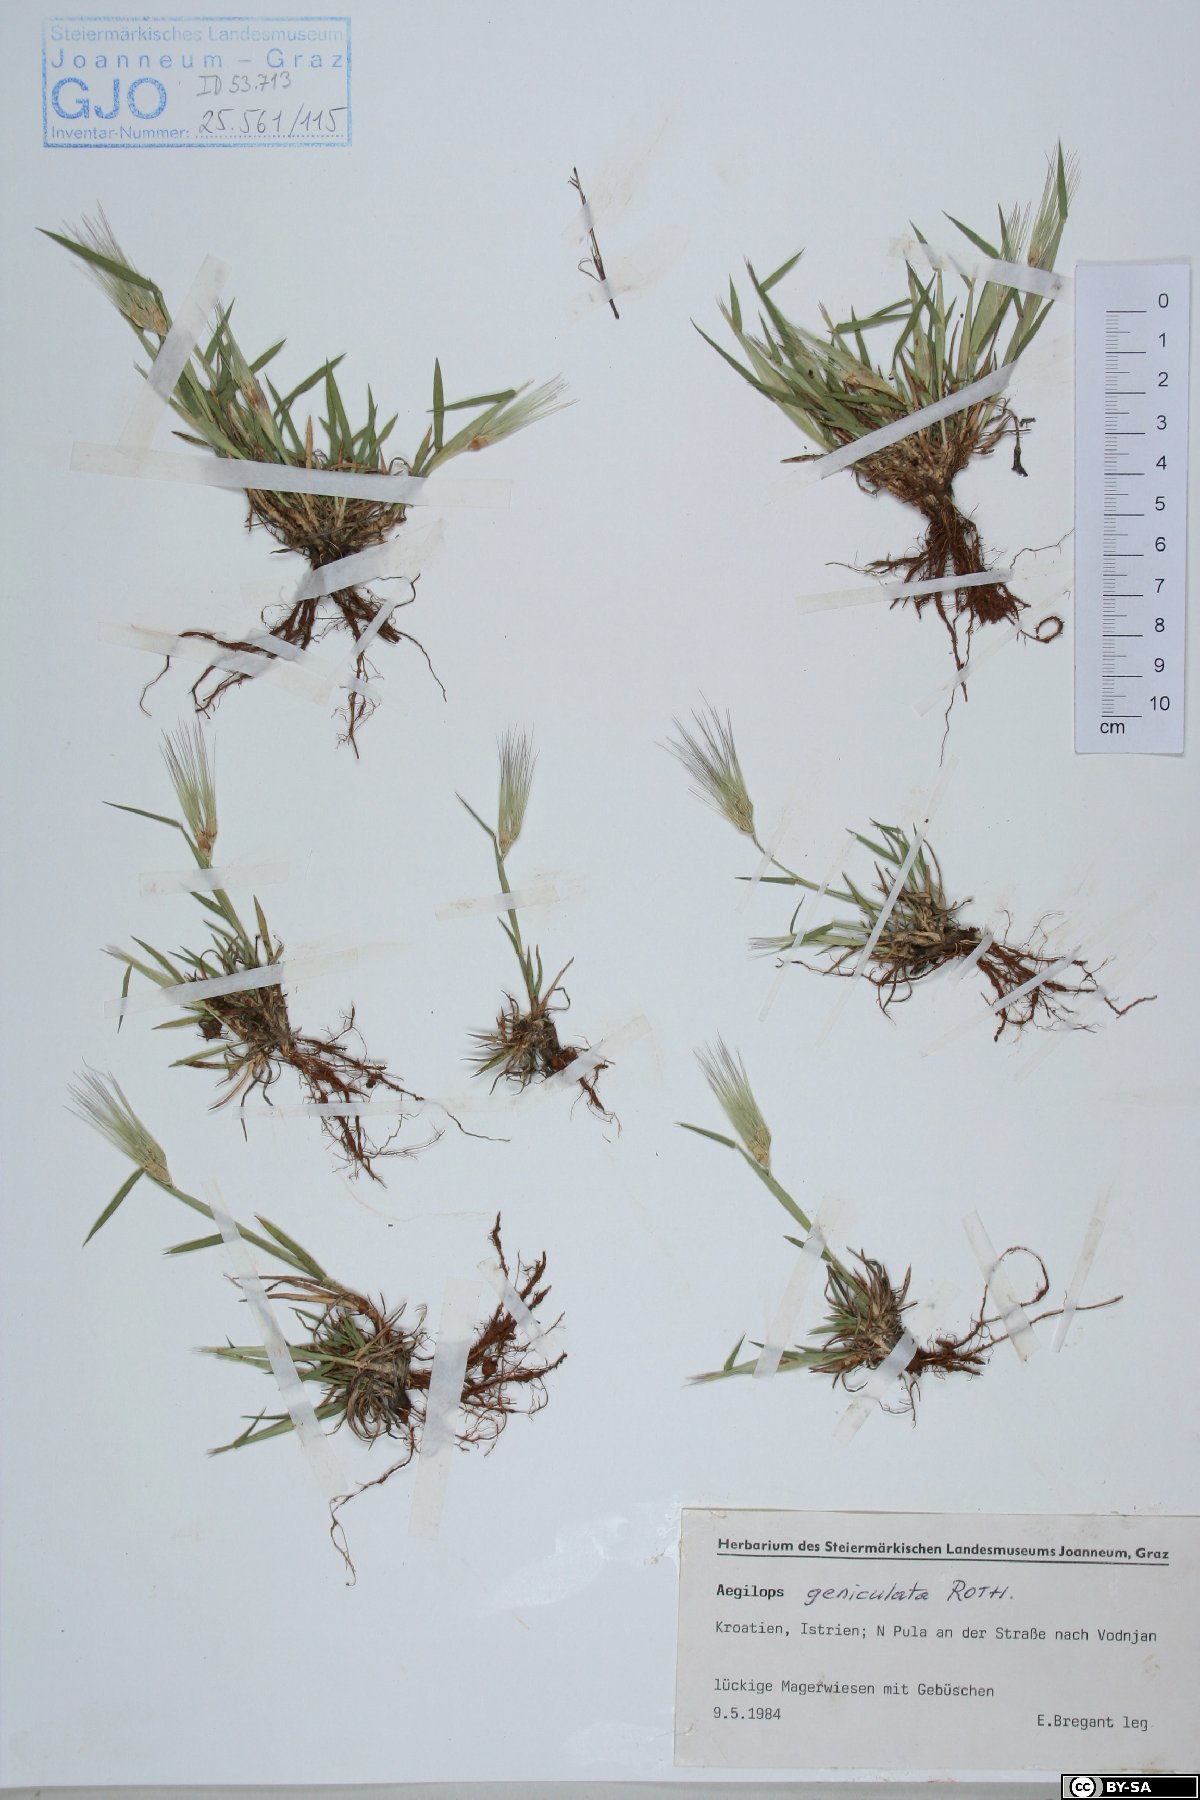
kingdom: Plantae
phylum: Tracheophyta
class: Liliopsida
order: Poales
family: Poaceae
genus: Aegilops
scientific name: Aegilops geniculata
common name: Ovate goat grass
